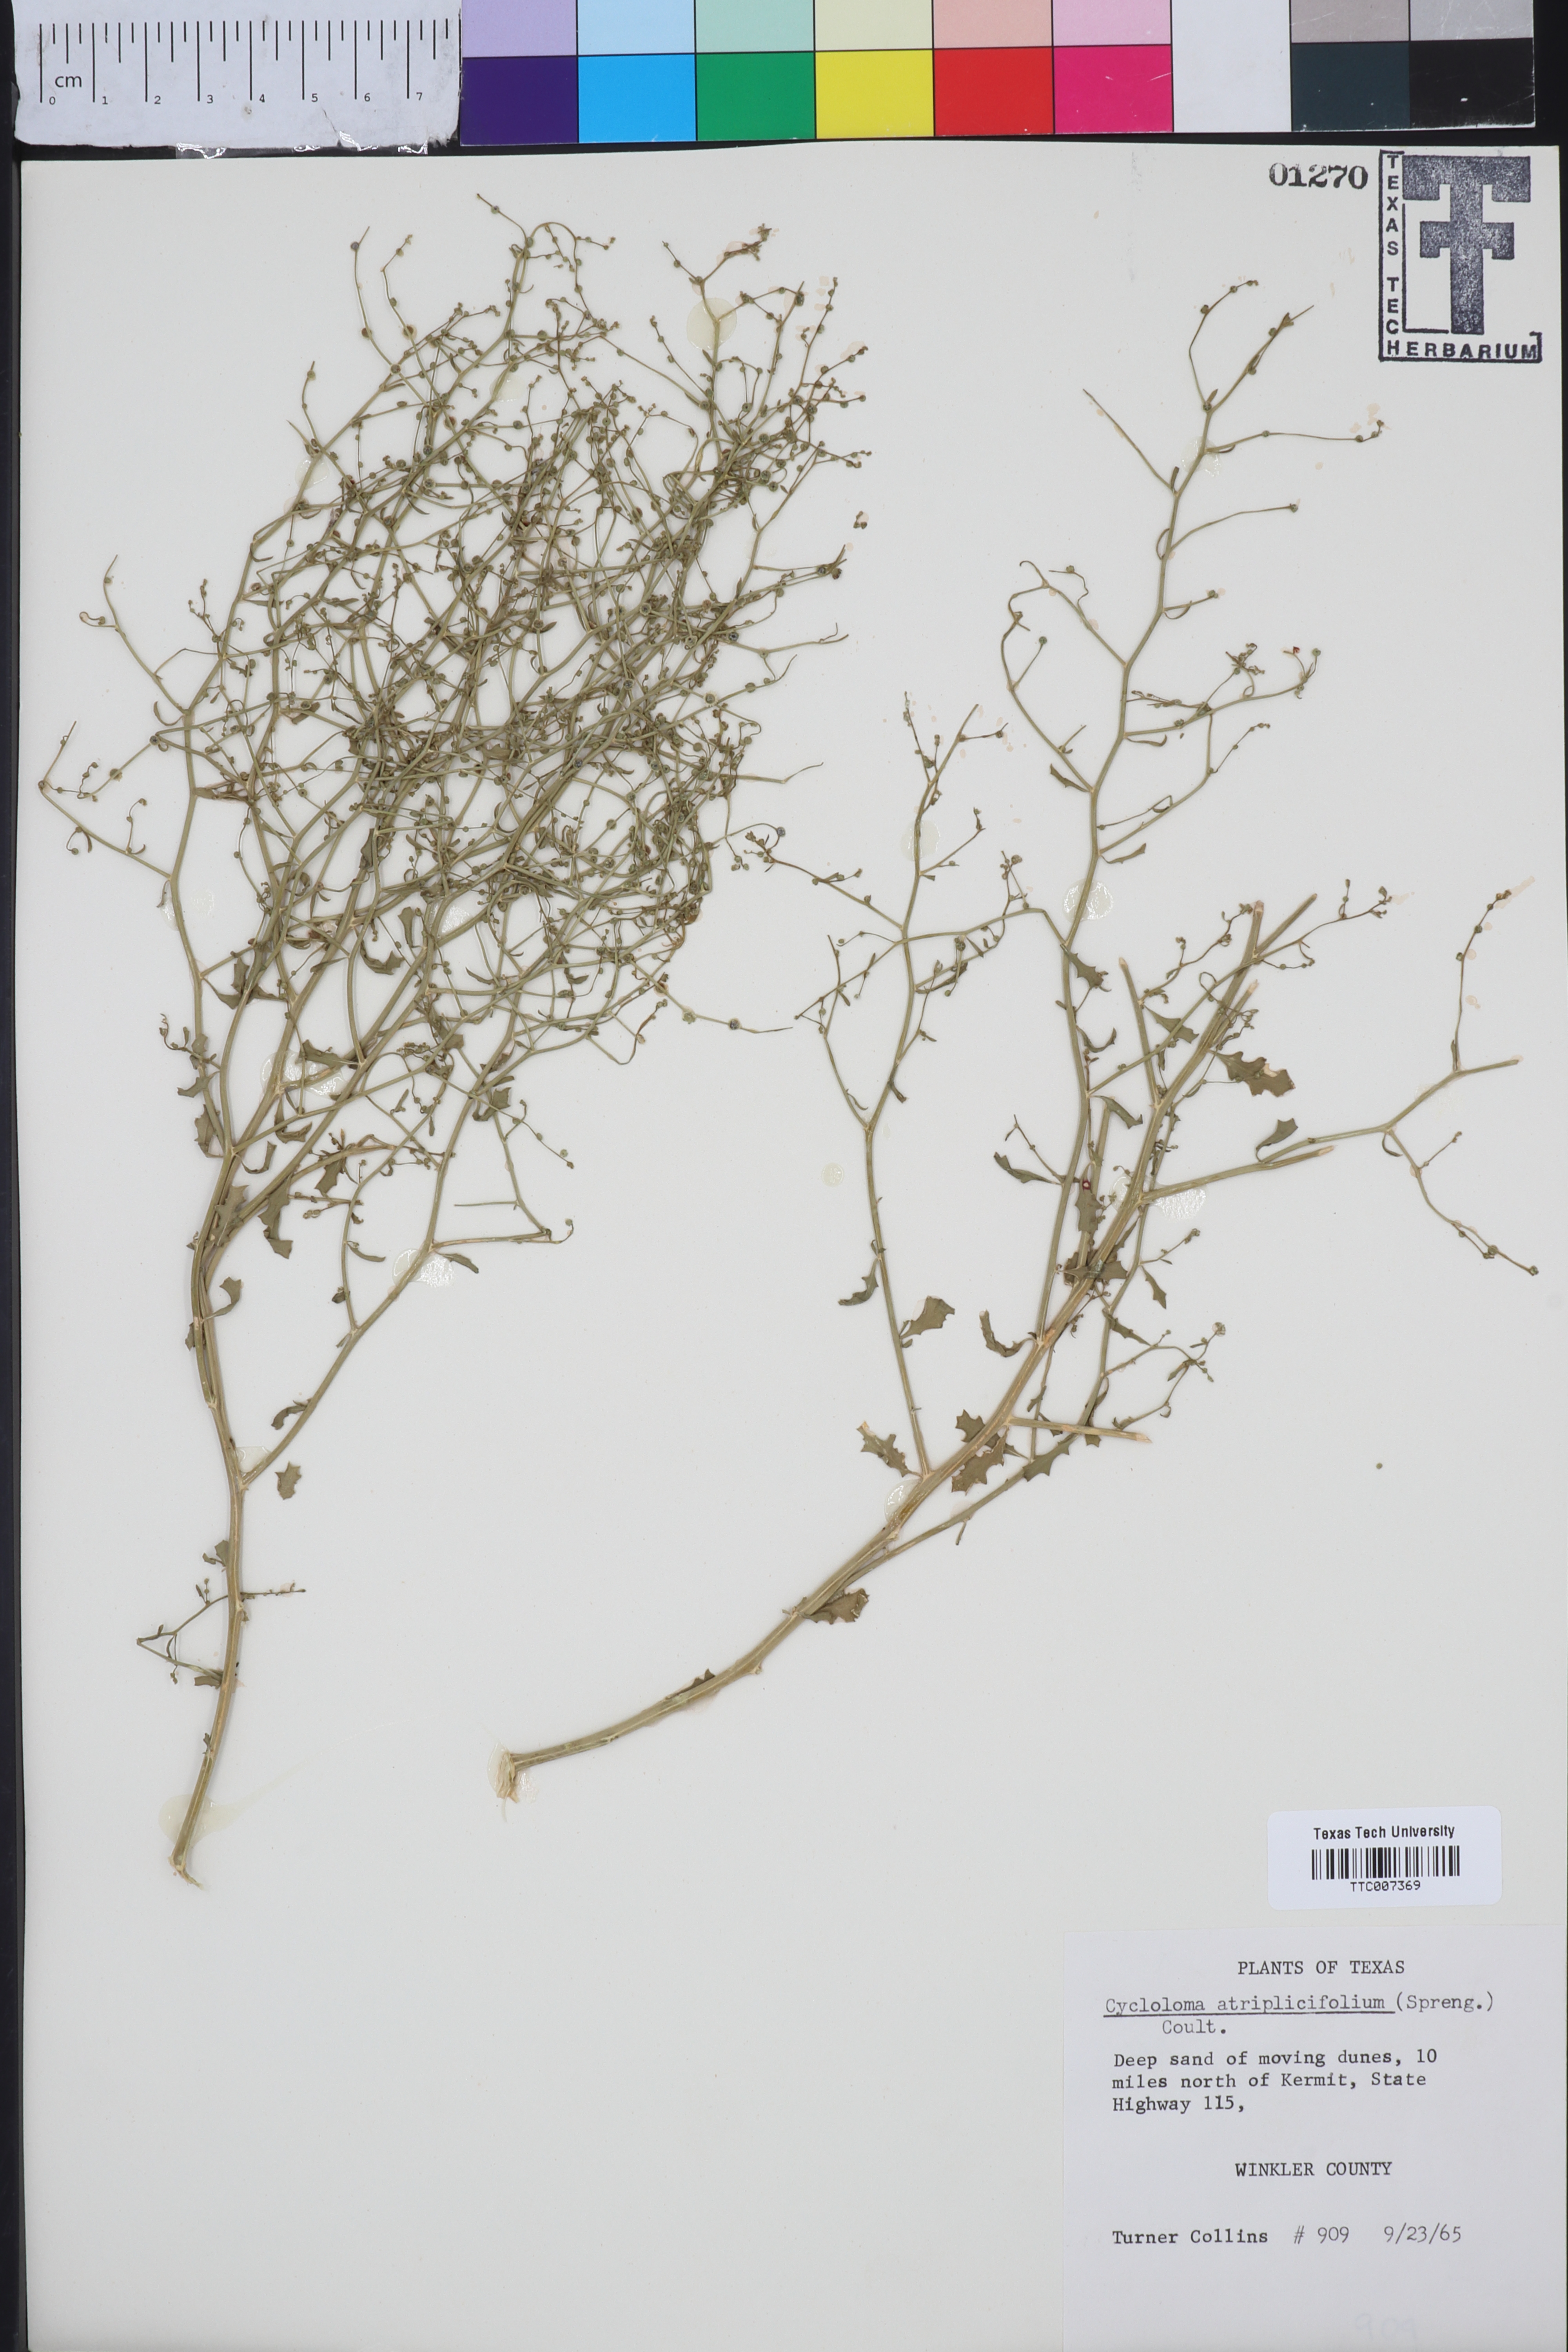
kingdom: Plantae
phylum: Tracheophyta
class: Magnoliopsida
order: Caryophyllales
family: Amaranthaceae
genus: Dysphania
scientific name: Dysphania atriplicifolia
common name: Plains tumbleweed
